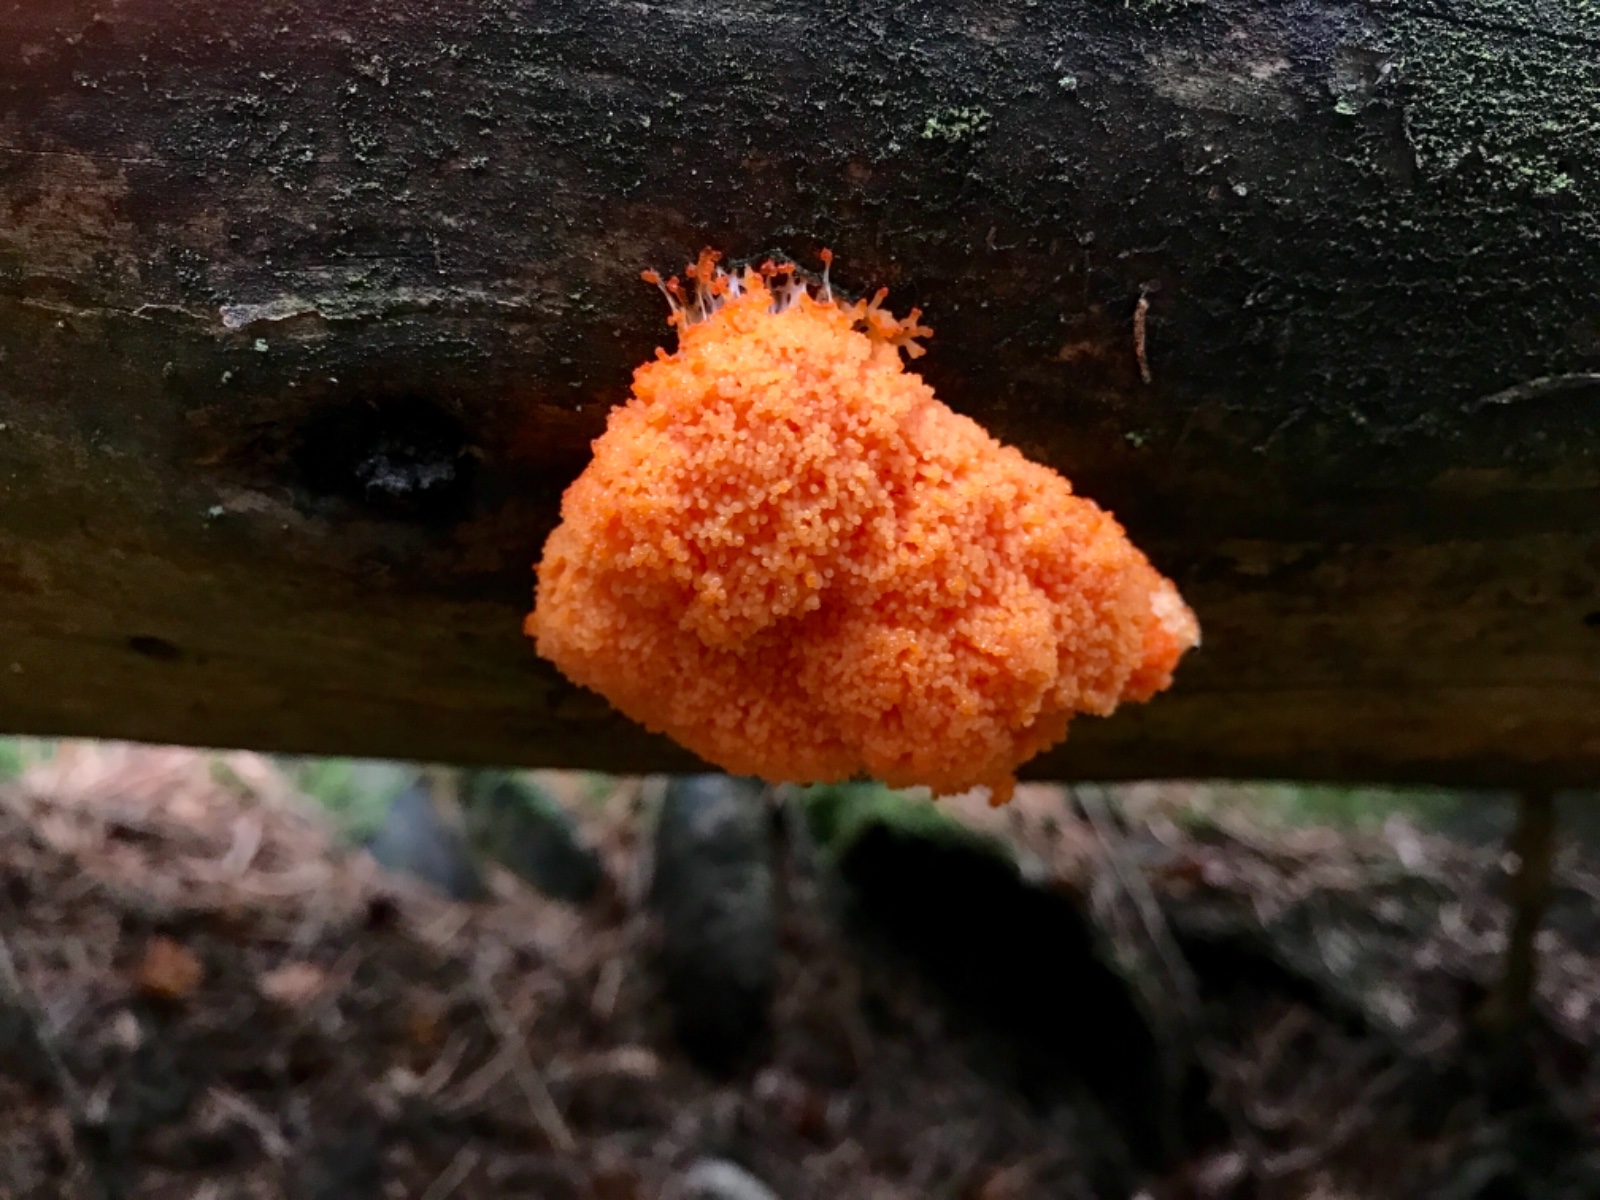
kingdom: Protozoa
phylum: Mycetozoa
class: Myxomycetes
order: Cribrariales
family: Tubiferaceae
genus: Tubifera
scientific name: Tubifera ferruginosa
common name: kanel-støvrør
